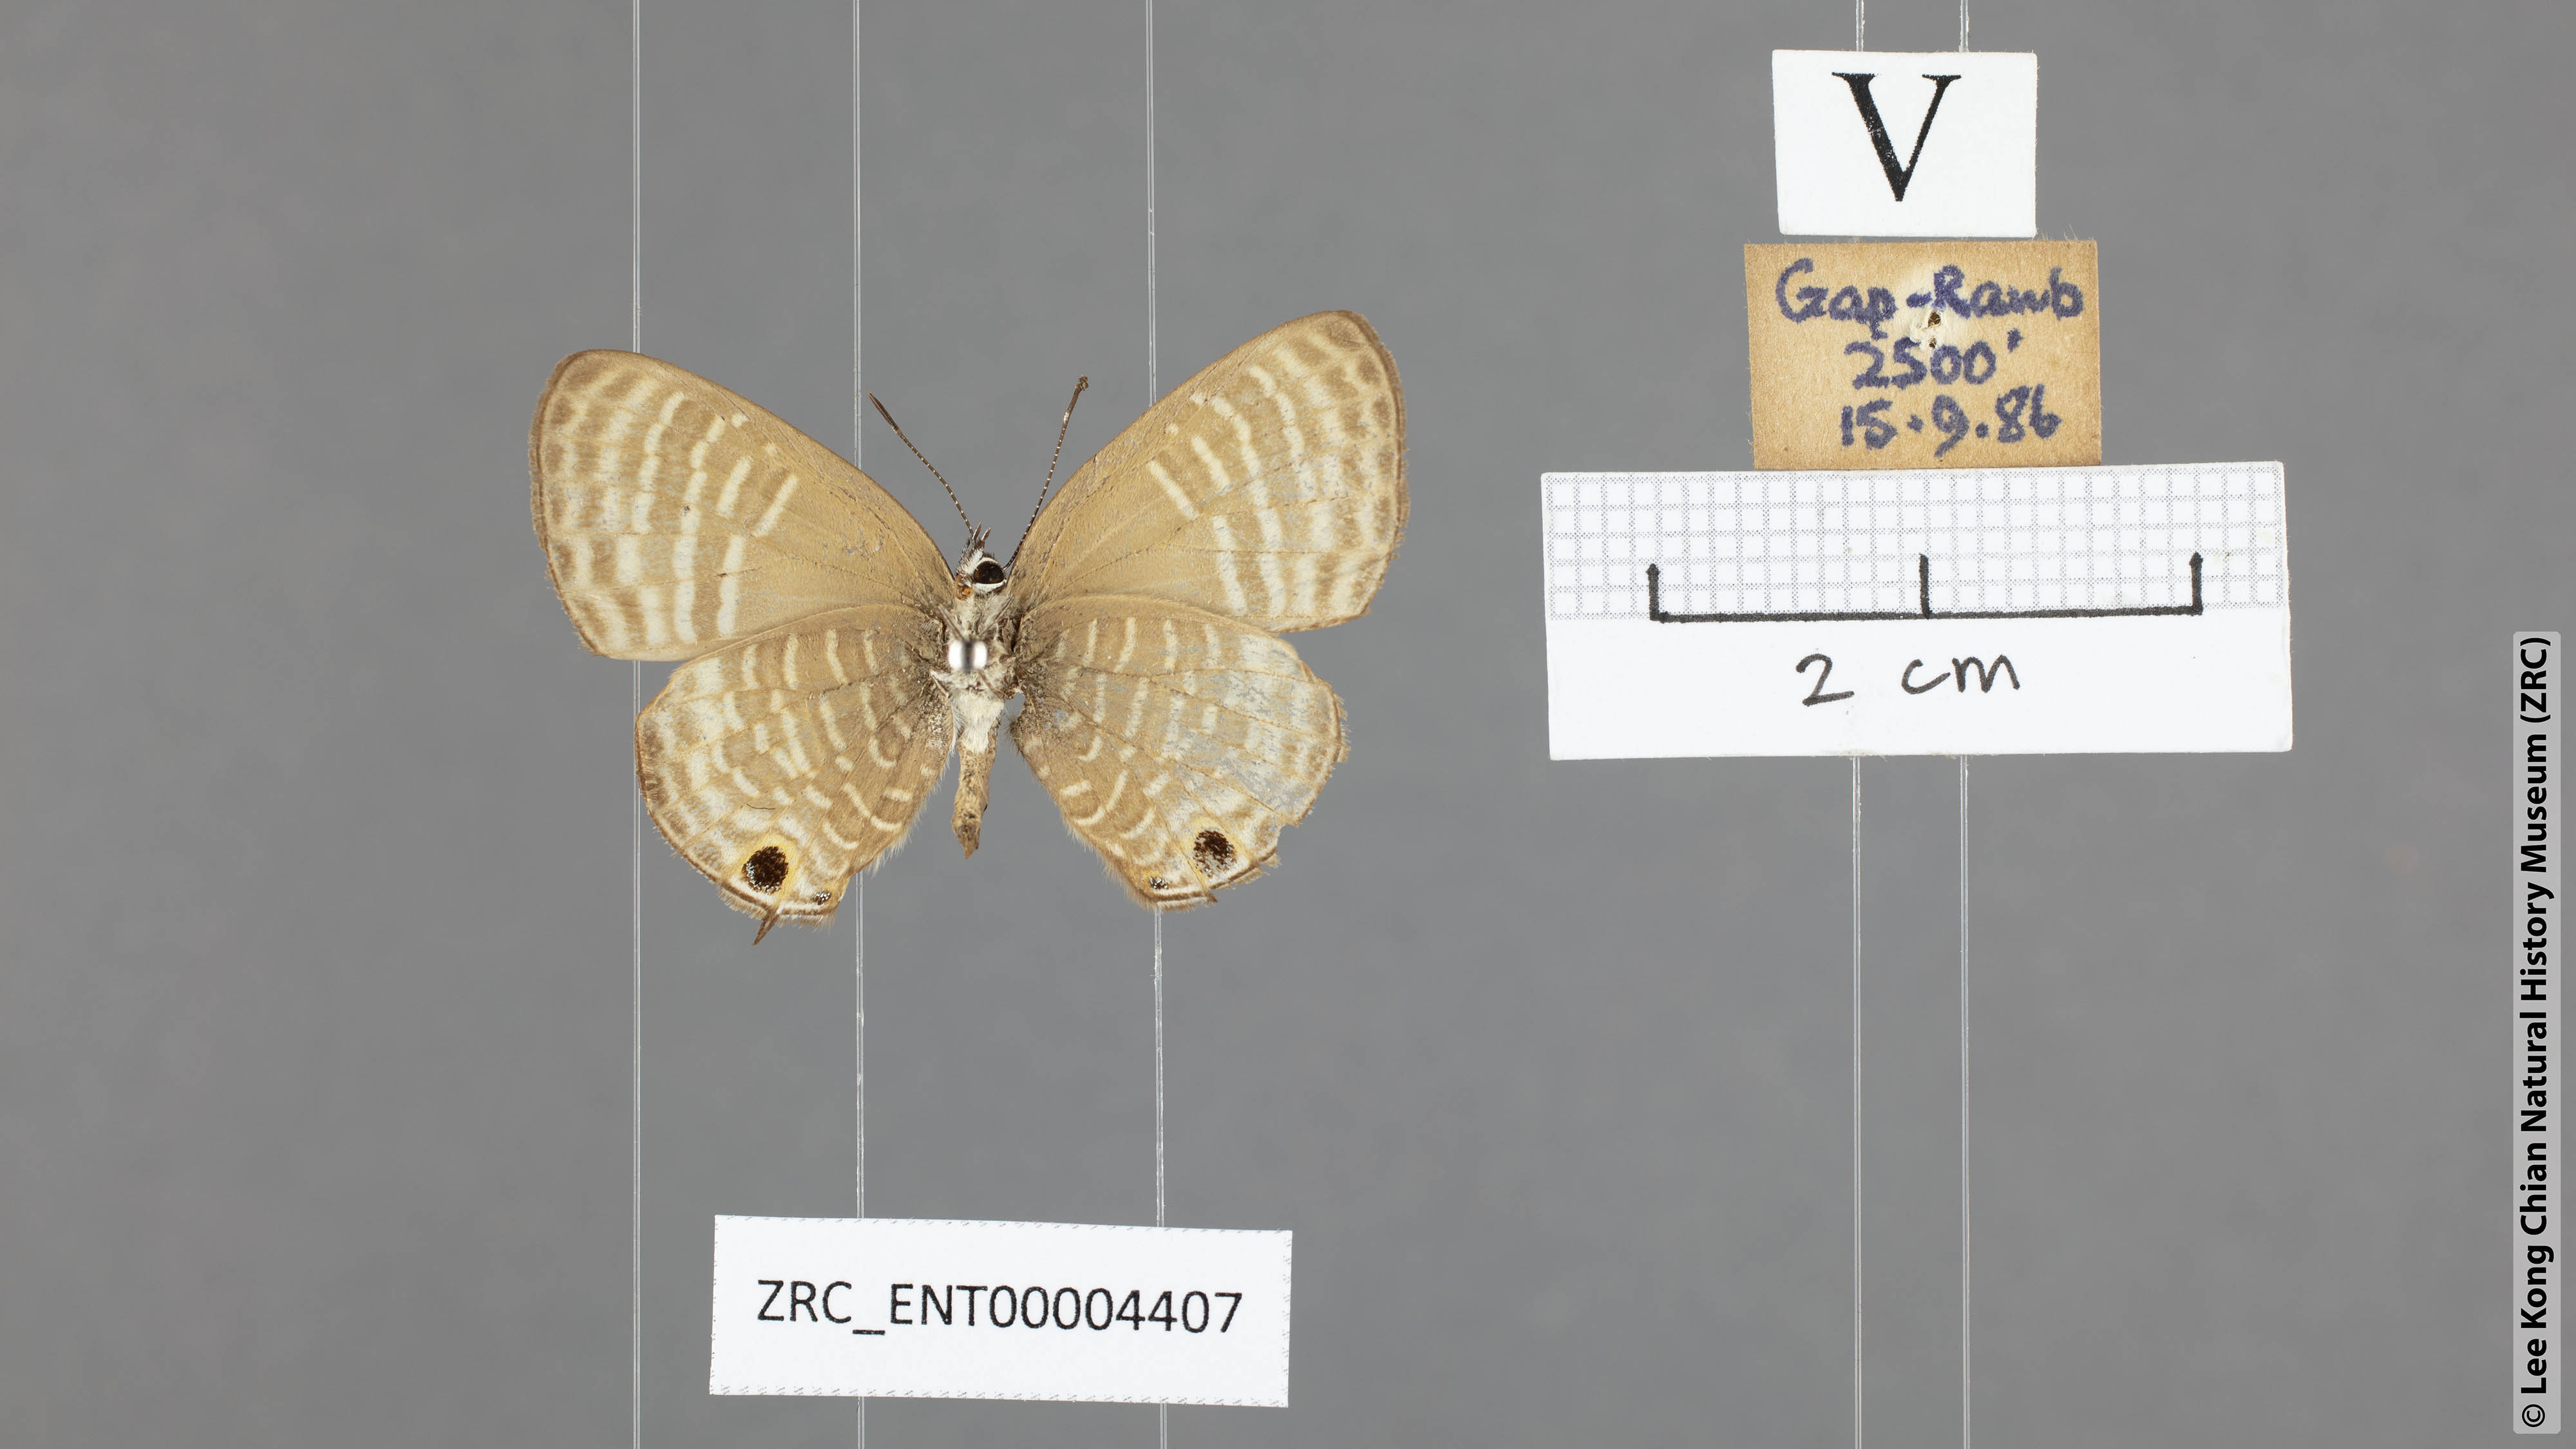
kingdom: Animalia
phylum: Arthropoda
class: Insecta
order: Lepidoptera
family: Lycaenidae
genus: Nacaduba
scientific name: Nacaduba pactolus
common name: Large fourline blue
